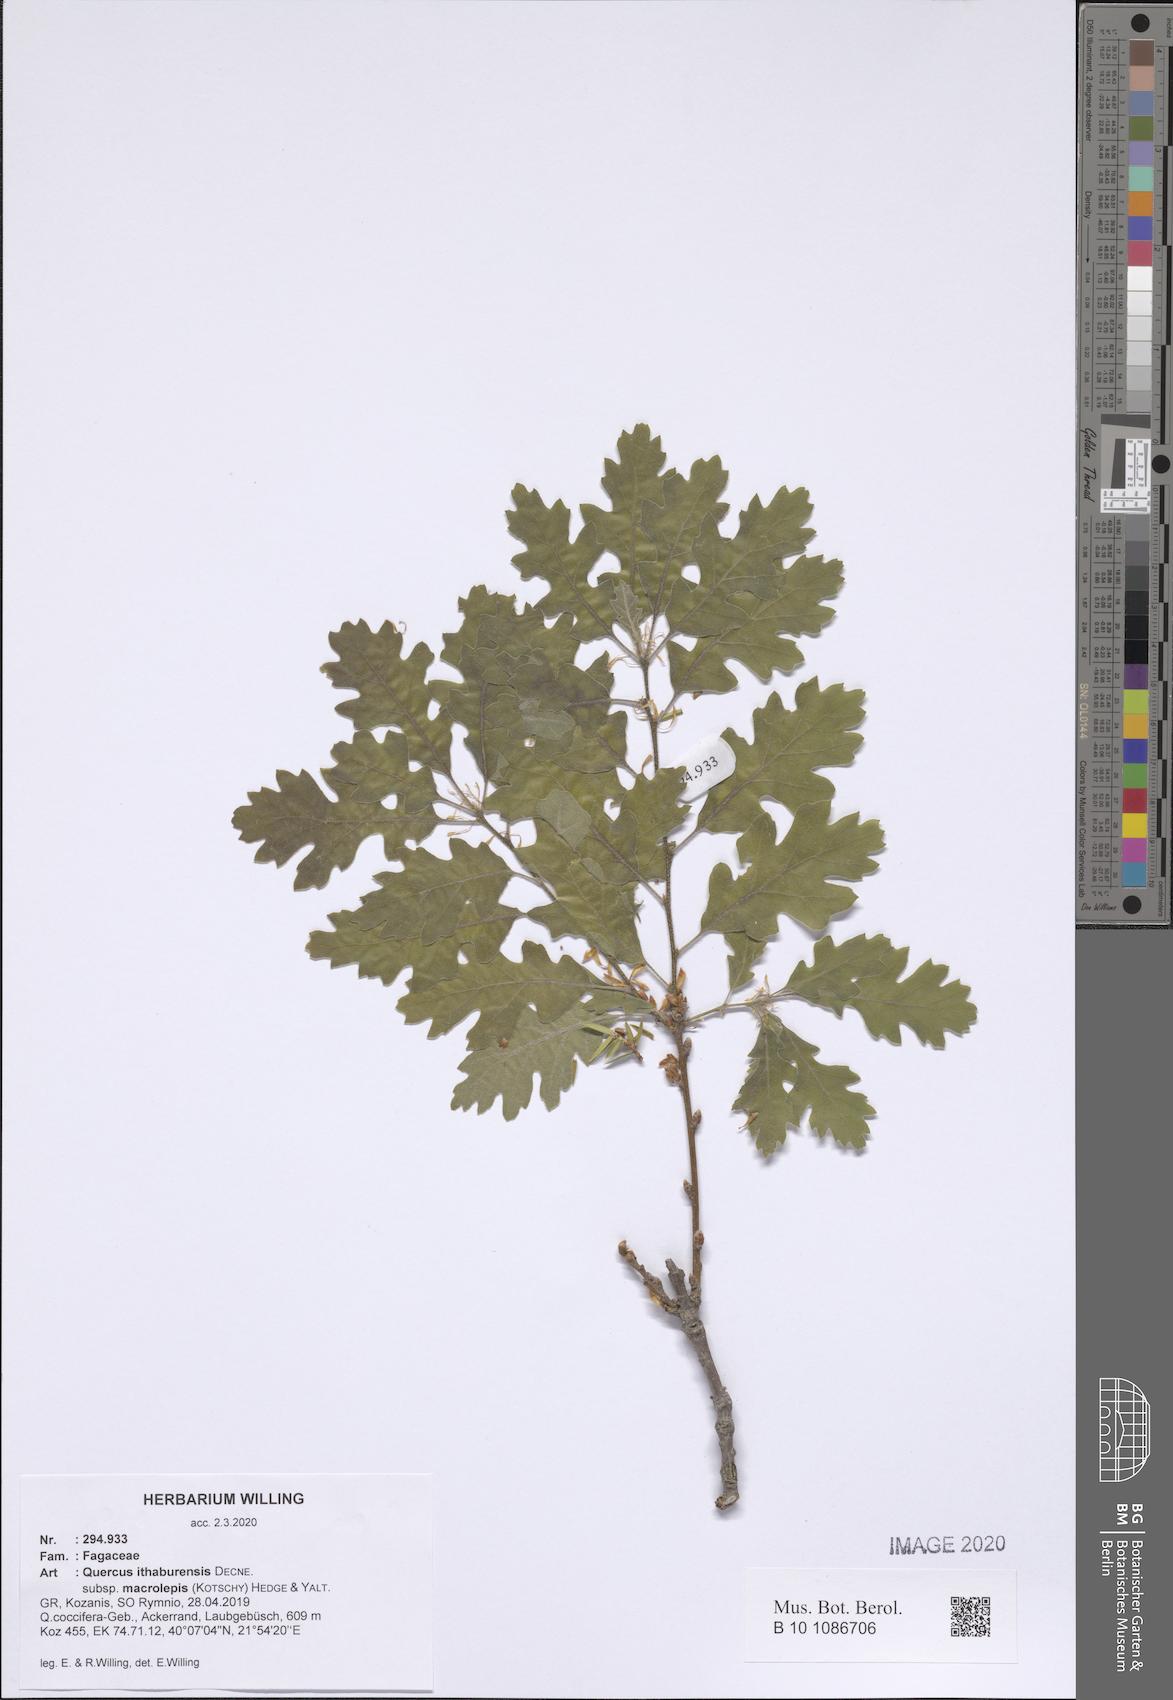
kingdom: Plantae
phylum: Tracheophyta
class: Magnoliopsida
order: Fagales
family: Fagaceae
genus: Quercus
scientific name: Quercus ithaburensis
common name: Tabor oak
